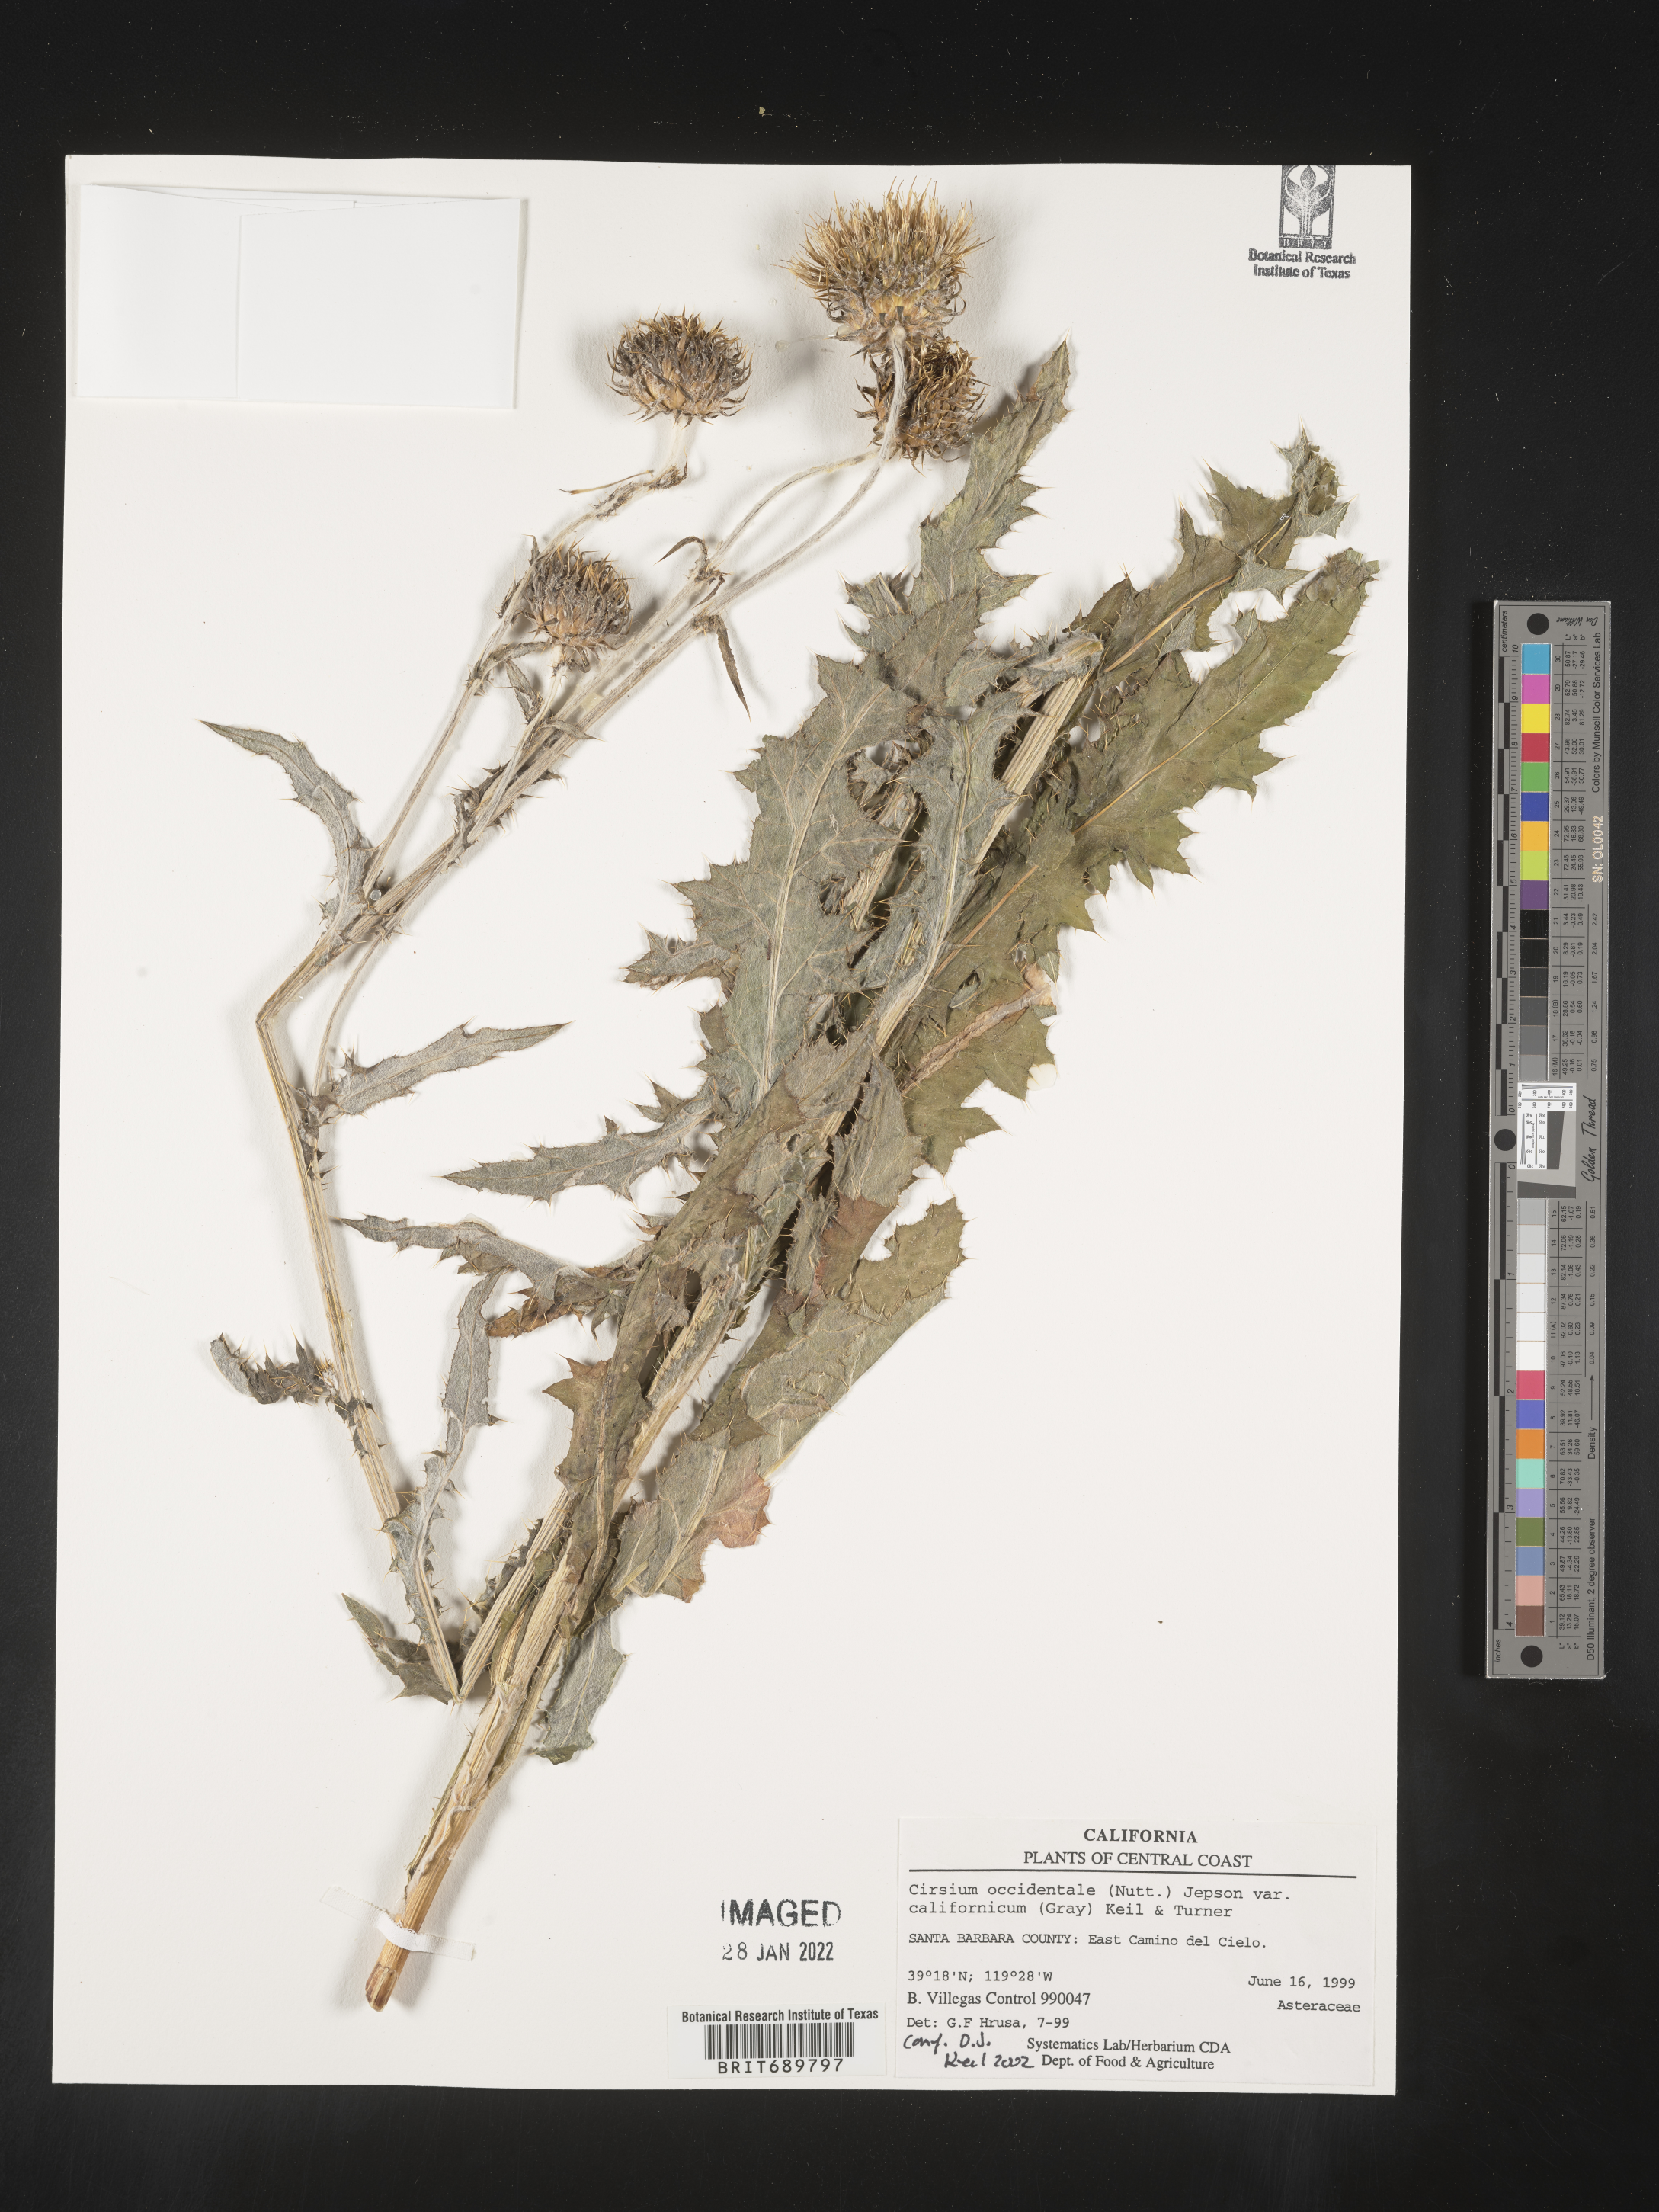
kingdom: Plantae
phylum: Tracheophyta
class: Magnoliopsida
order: Asterales
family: Asteraceae
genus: Cirsium
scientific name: Cirsium occidentale
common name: Western thistle
